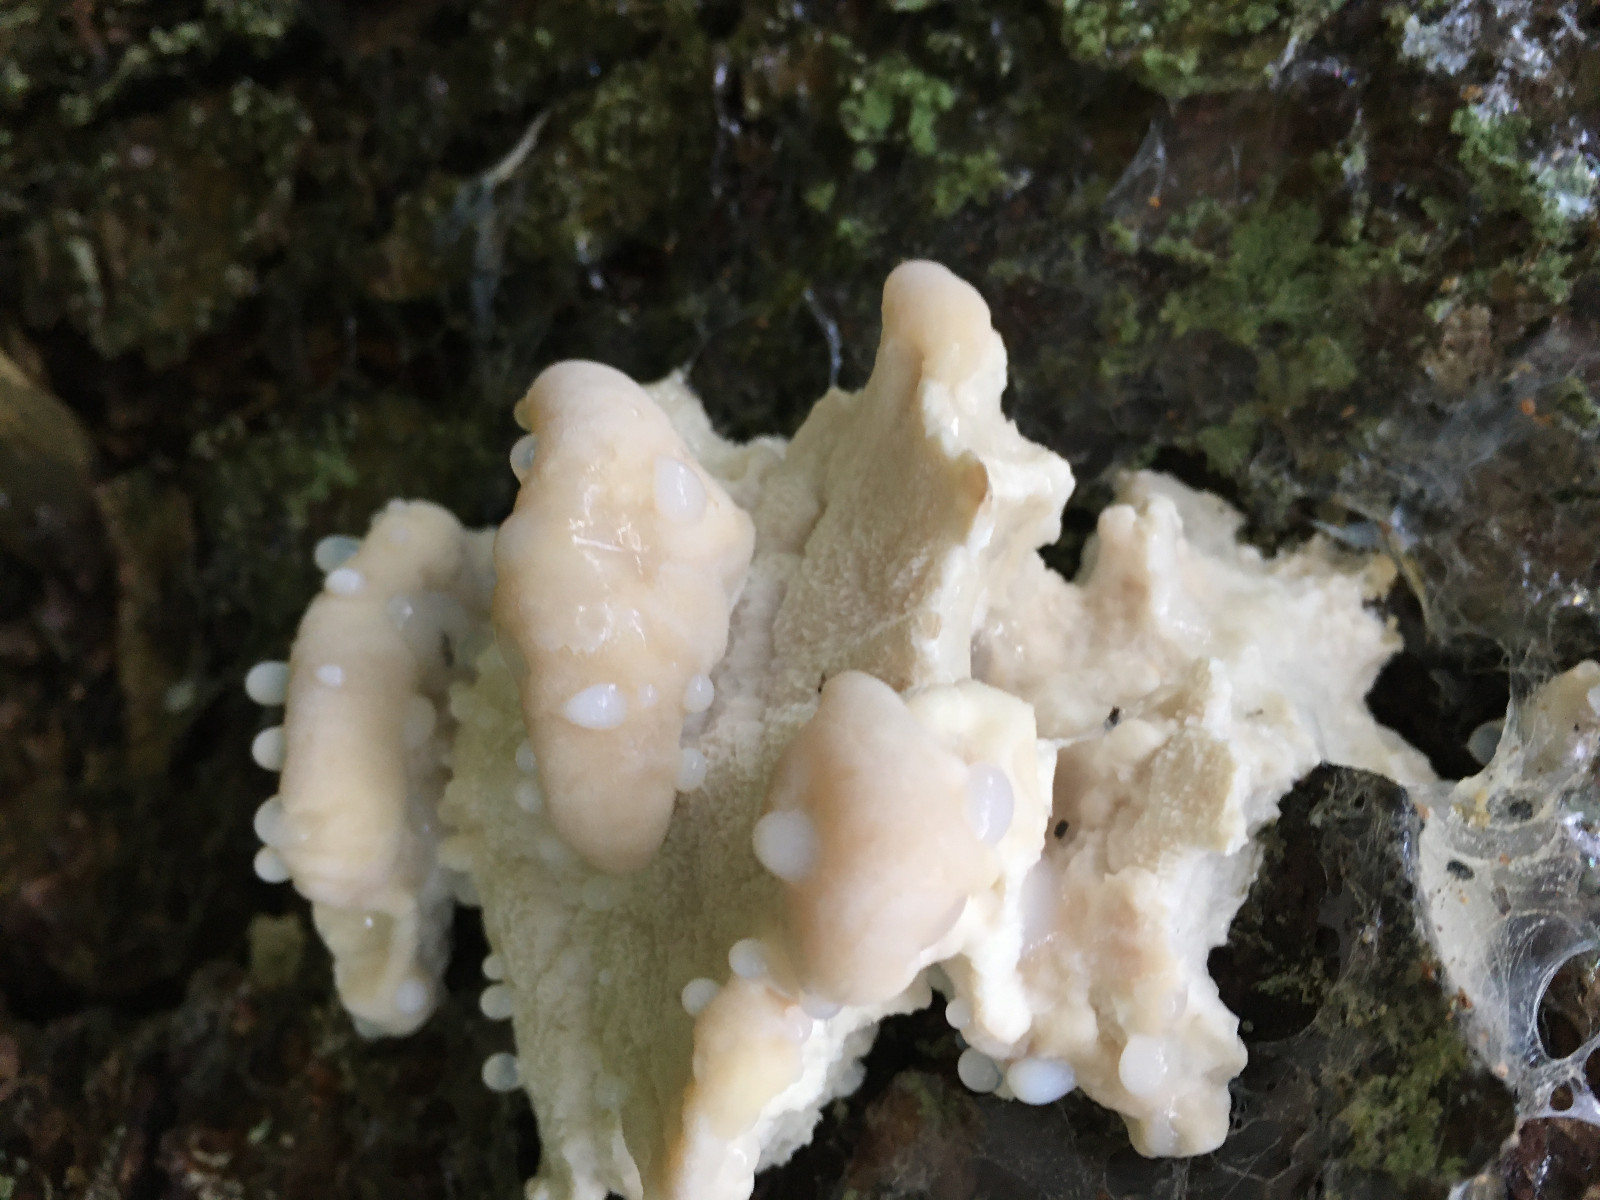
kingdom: Fungi
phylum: Basidiomycota
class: Agaricomycetes
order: Polyporales
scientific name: Polyporales
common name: poresvampordenen
